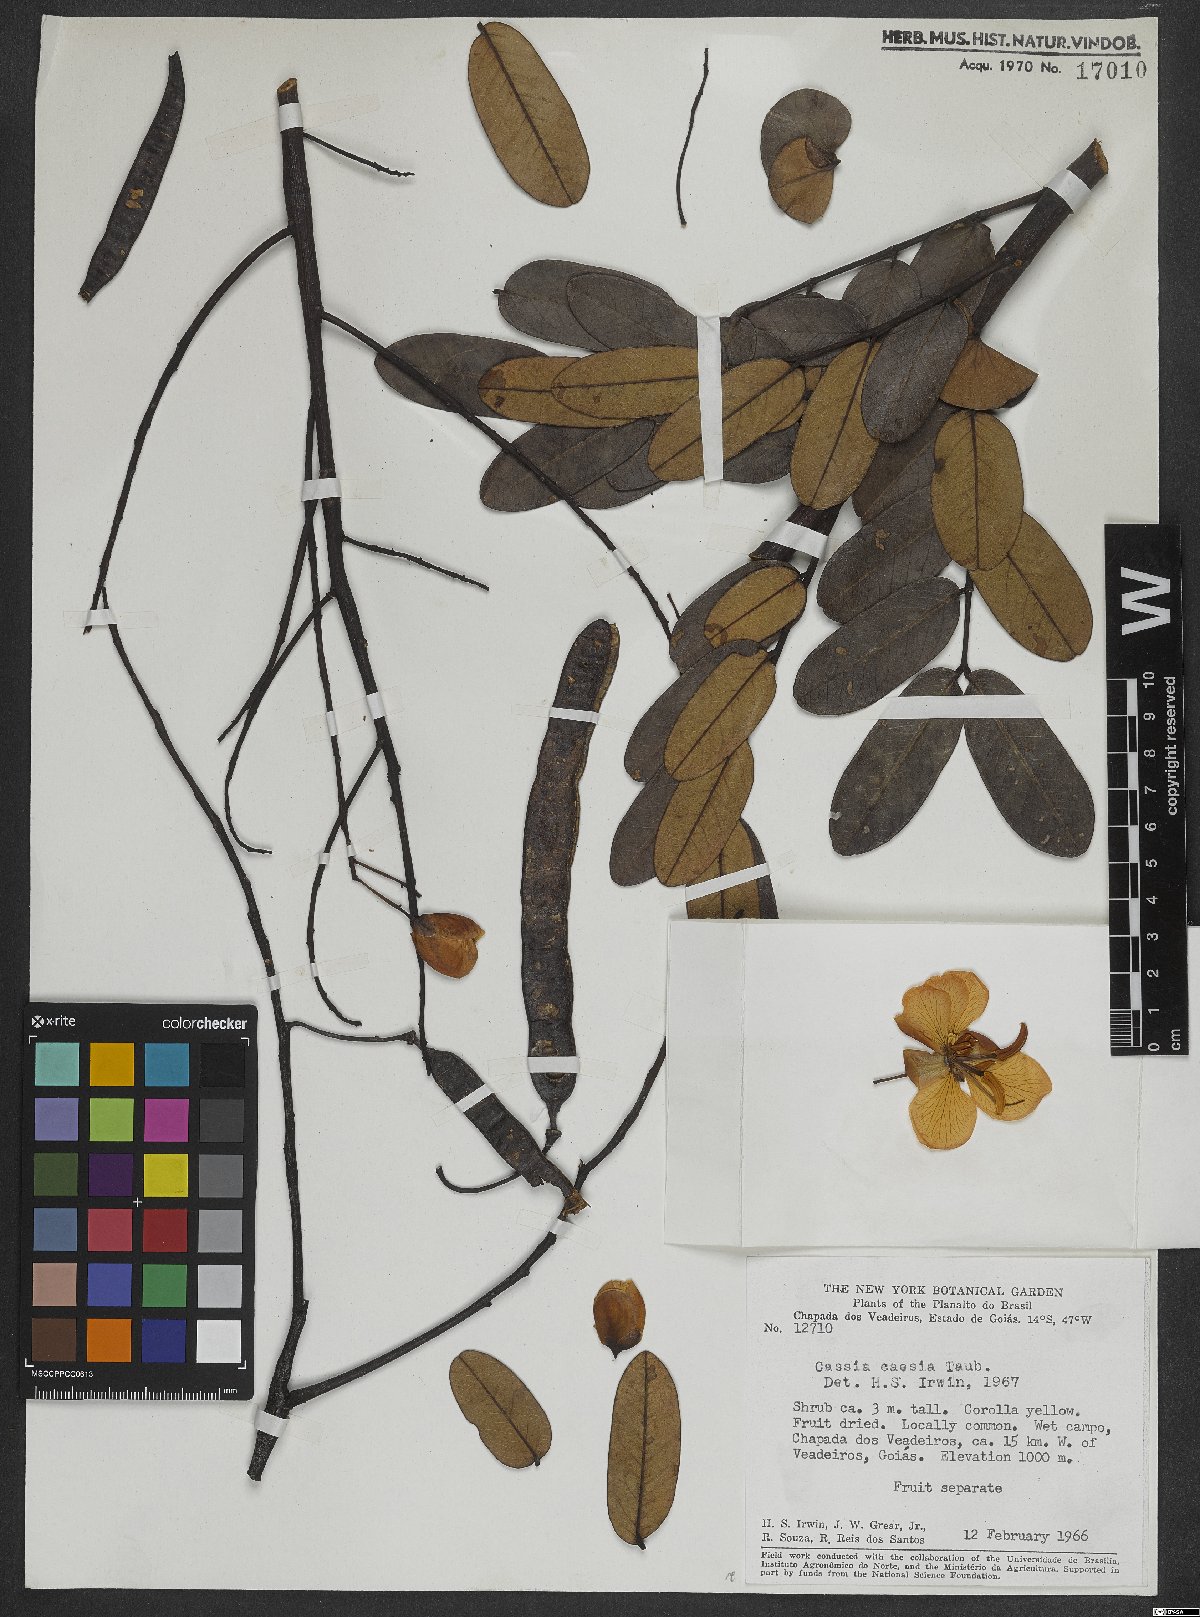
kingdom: Plantae
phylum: Tracheophyta
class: Magnoliopsida
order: Fabales
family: Fabaceae
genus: Senna
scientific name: Senna corifolia
